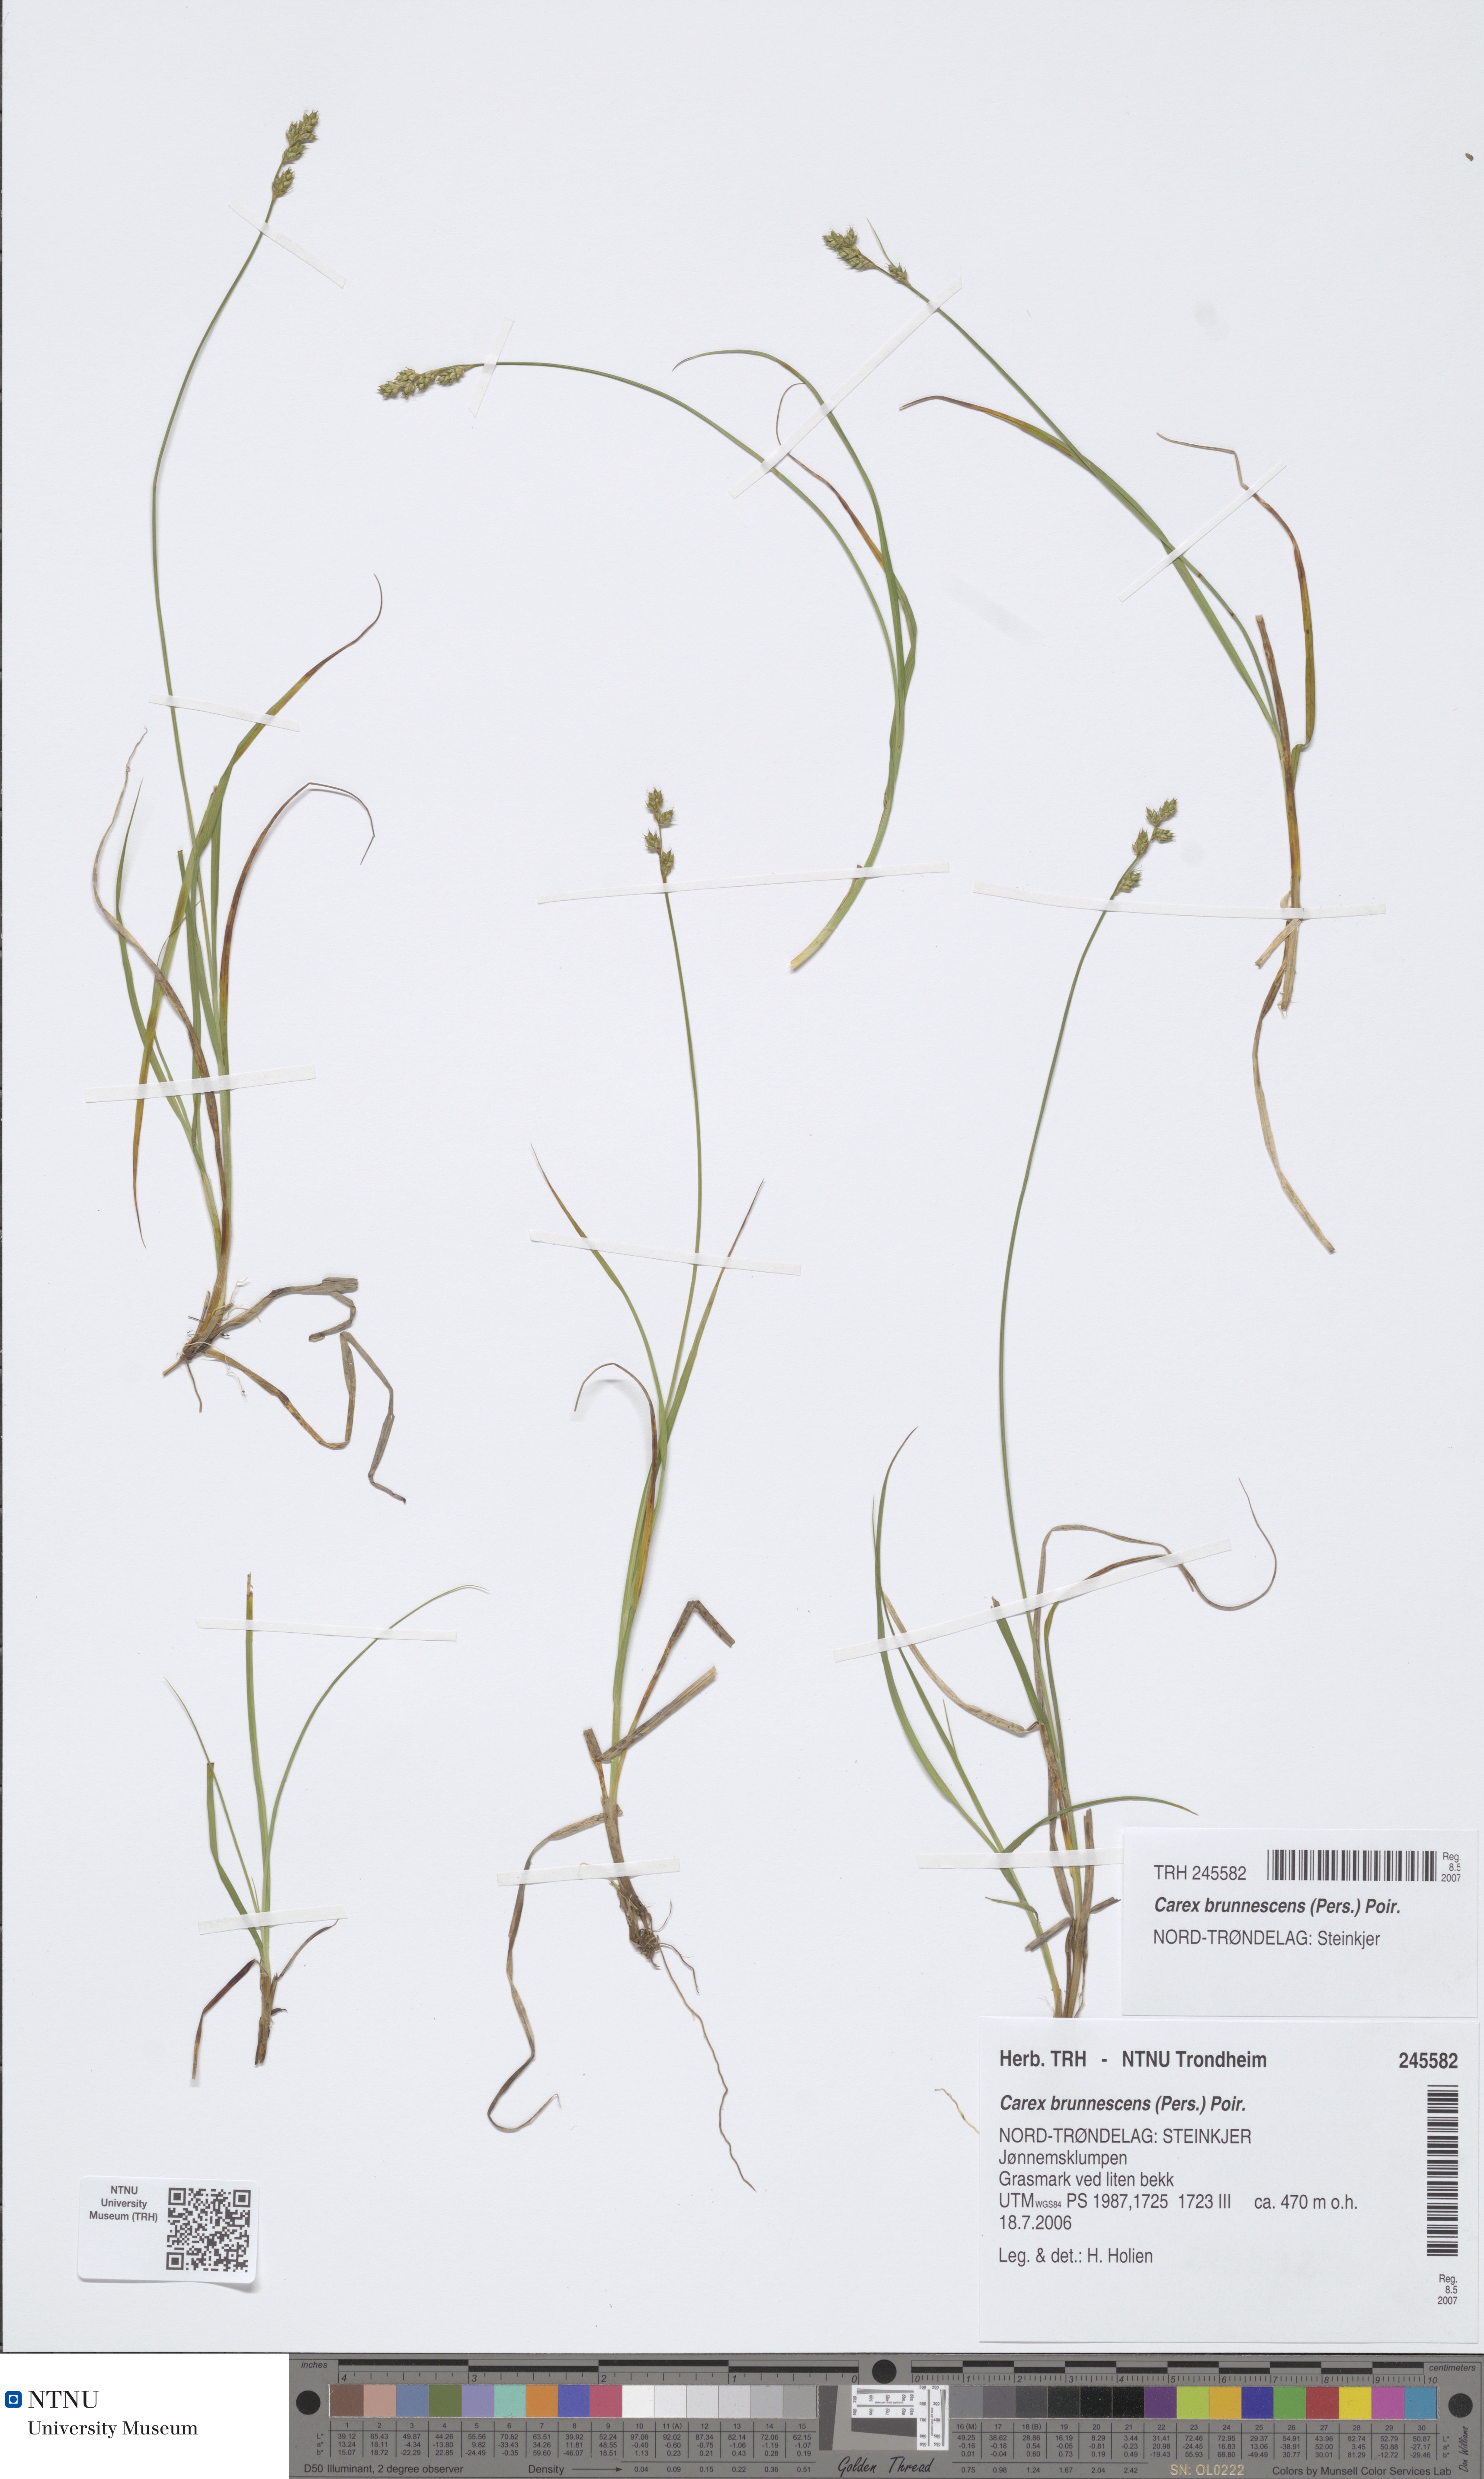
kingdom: Plantae
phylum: Tracheophyta
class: Liliopsida
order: Poales
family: Cyperaceae
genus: Carex
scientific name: Carex brunnescens
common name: Brown sedge
